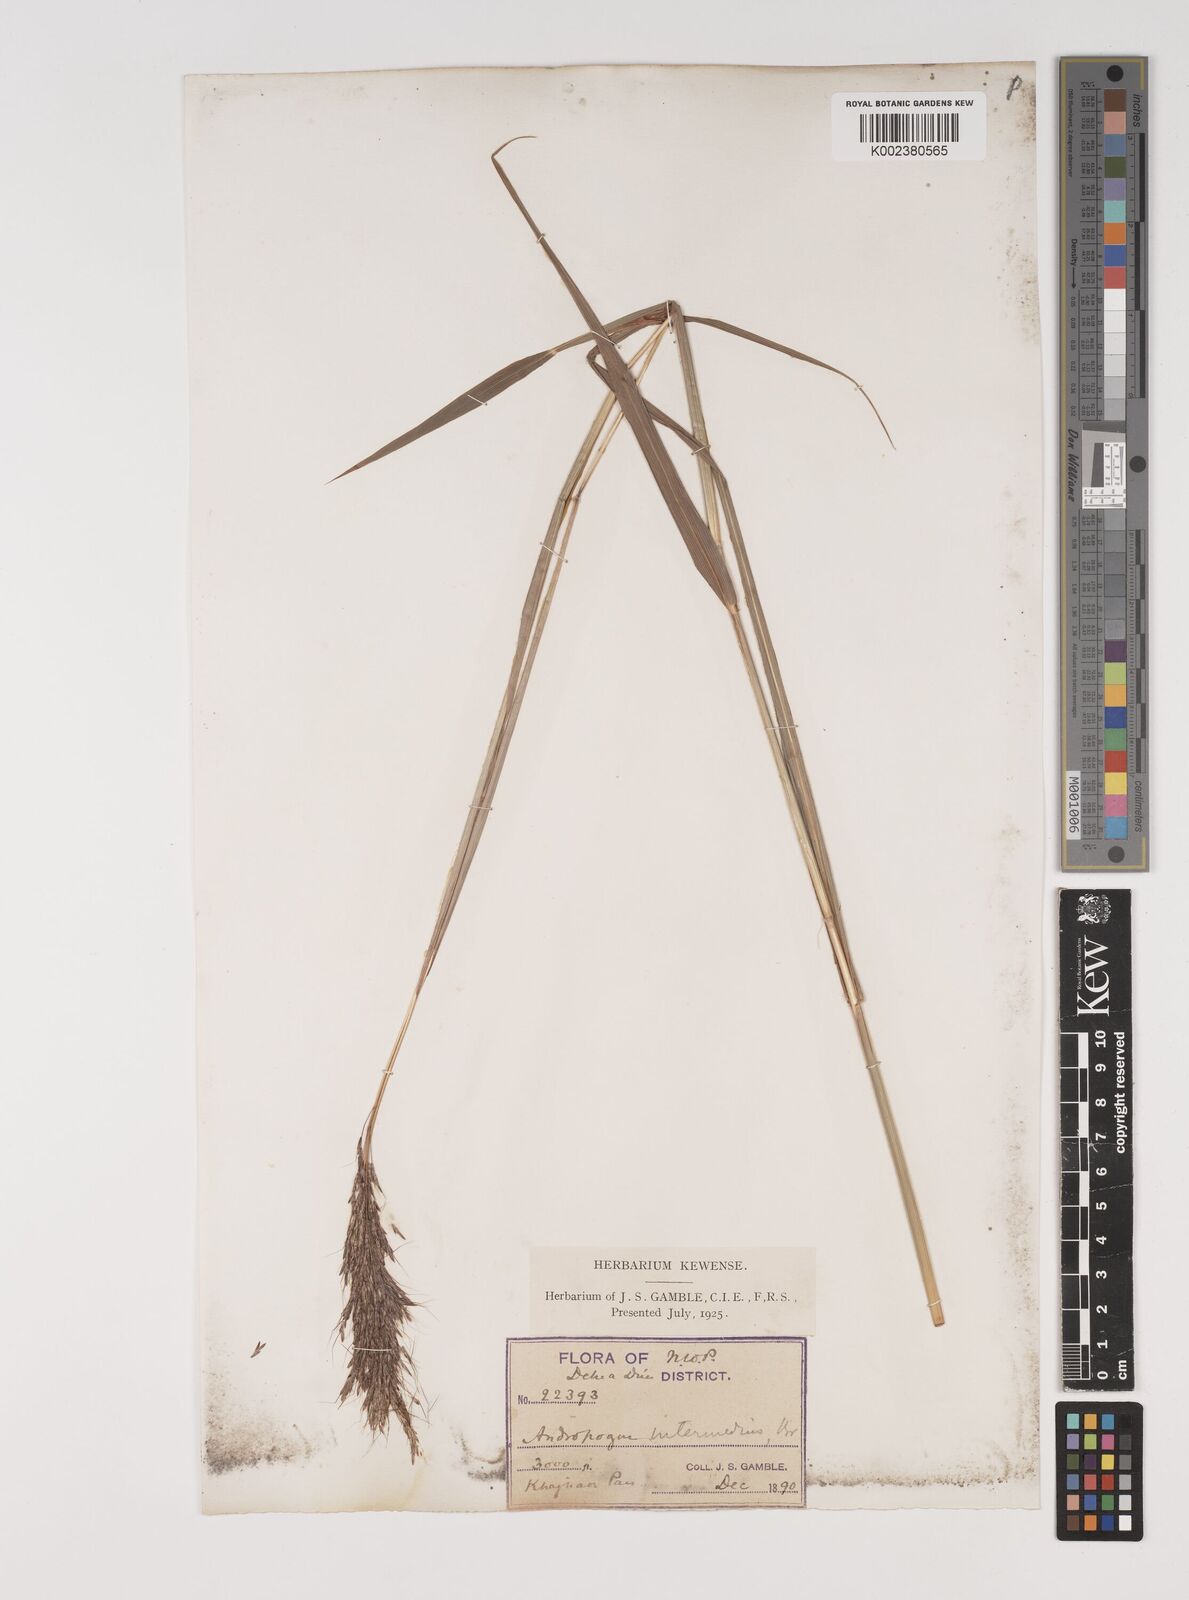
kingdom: Plantae
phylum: Tracheophyta
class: Liliopsida
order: Poales
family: Poaceae
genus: Bothriochloa
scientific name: Bothriochloa bladhii
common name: Caucasian bluestem
